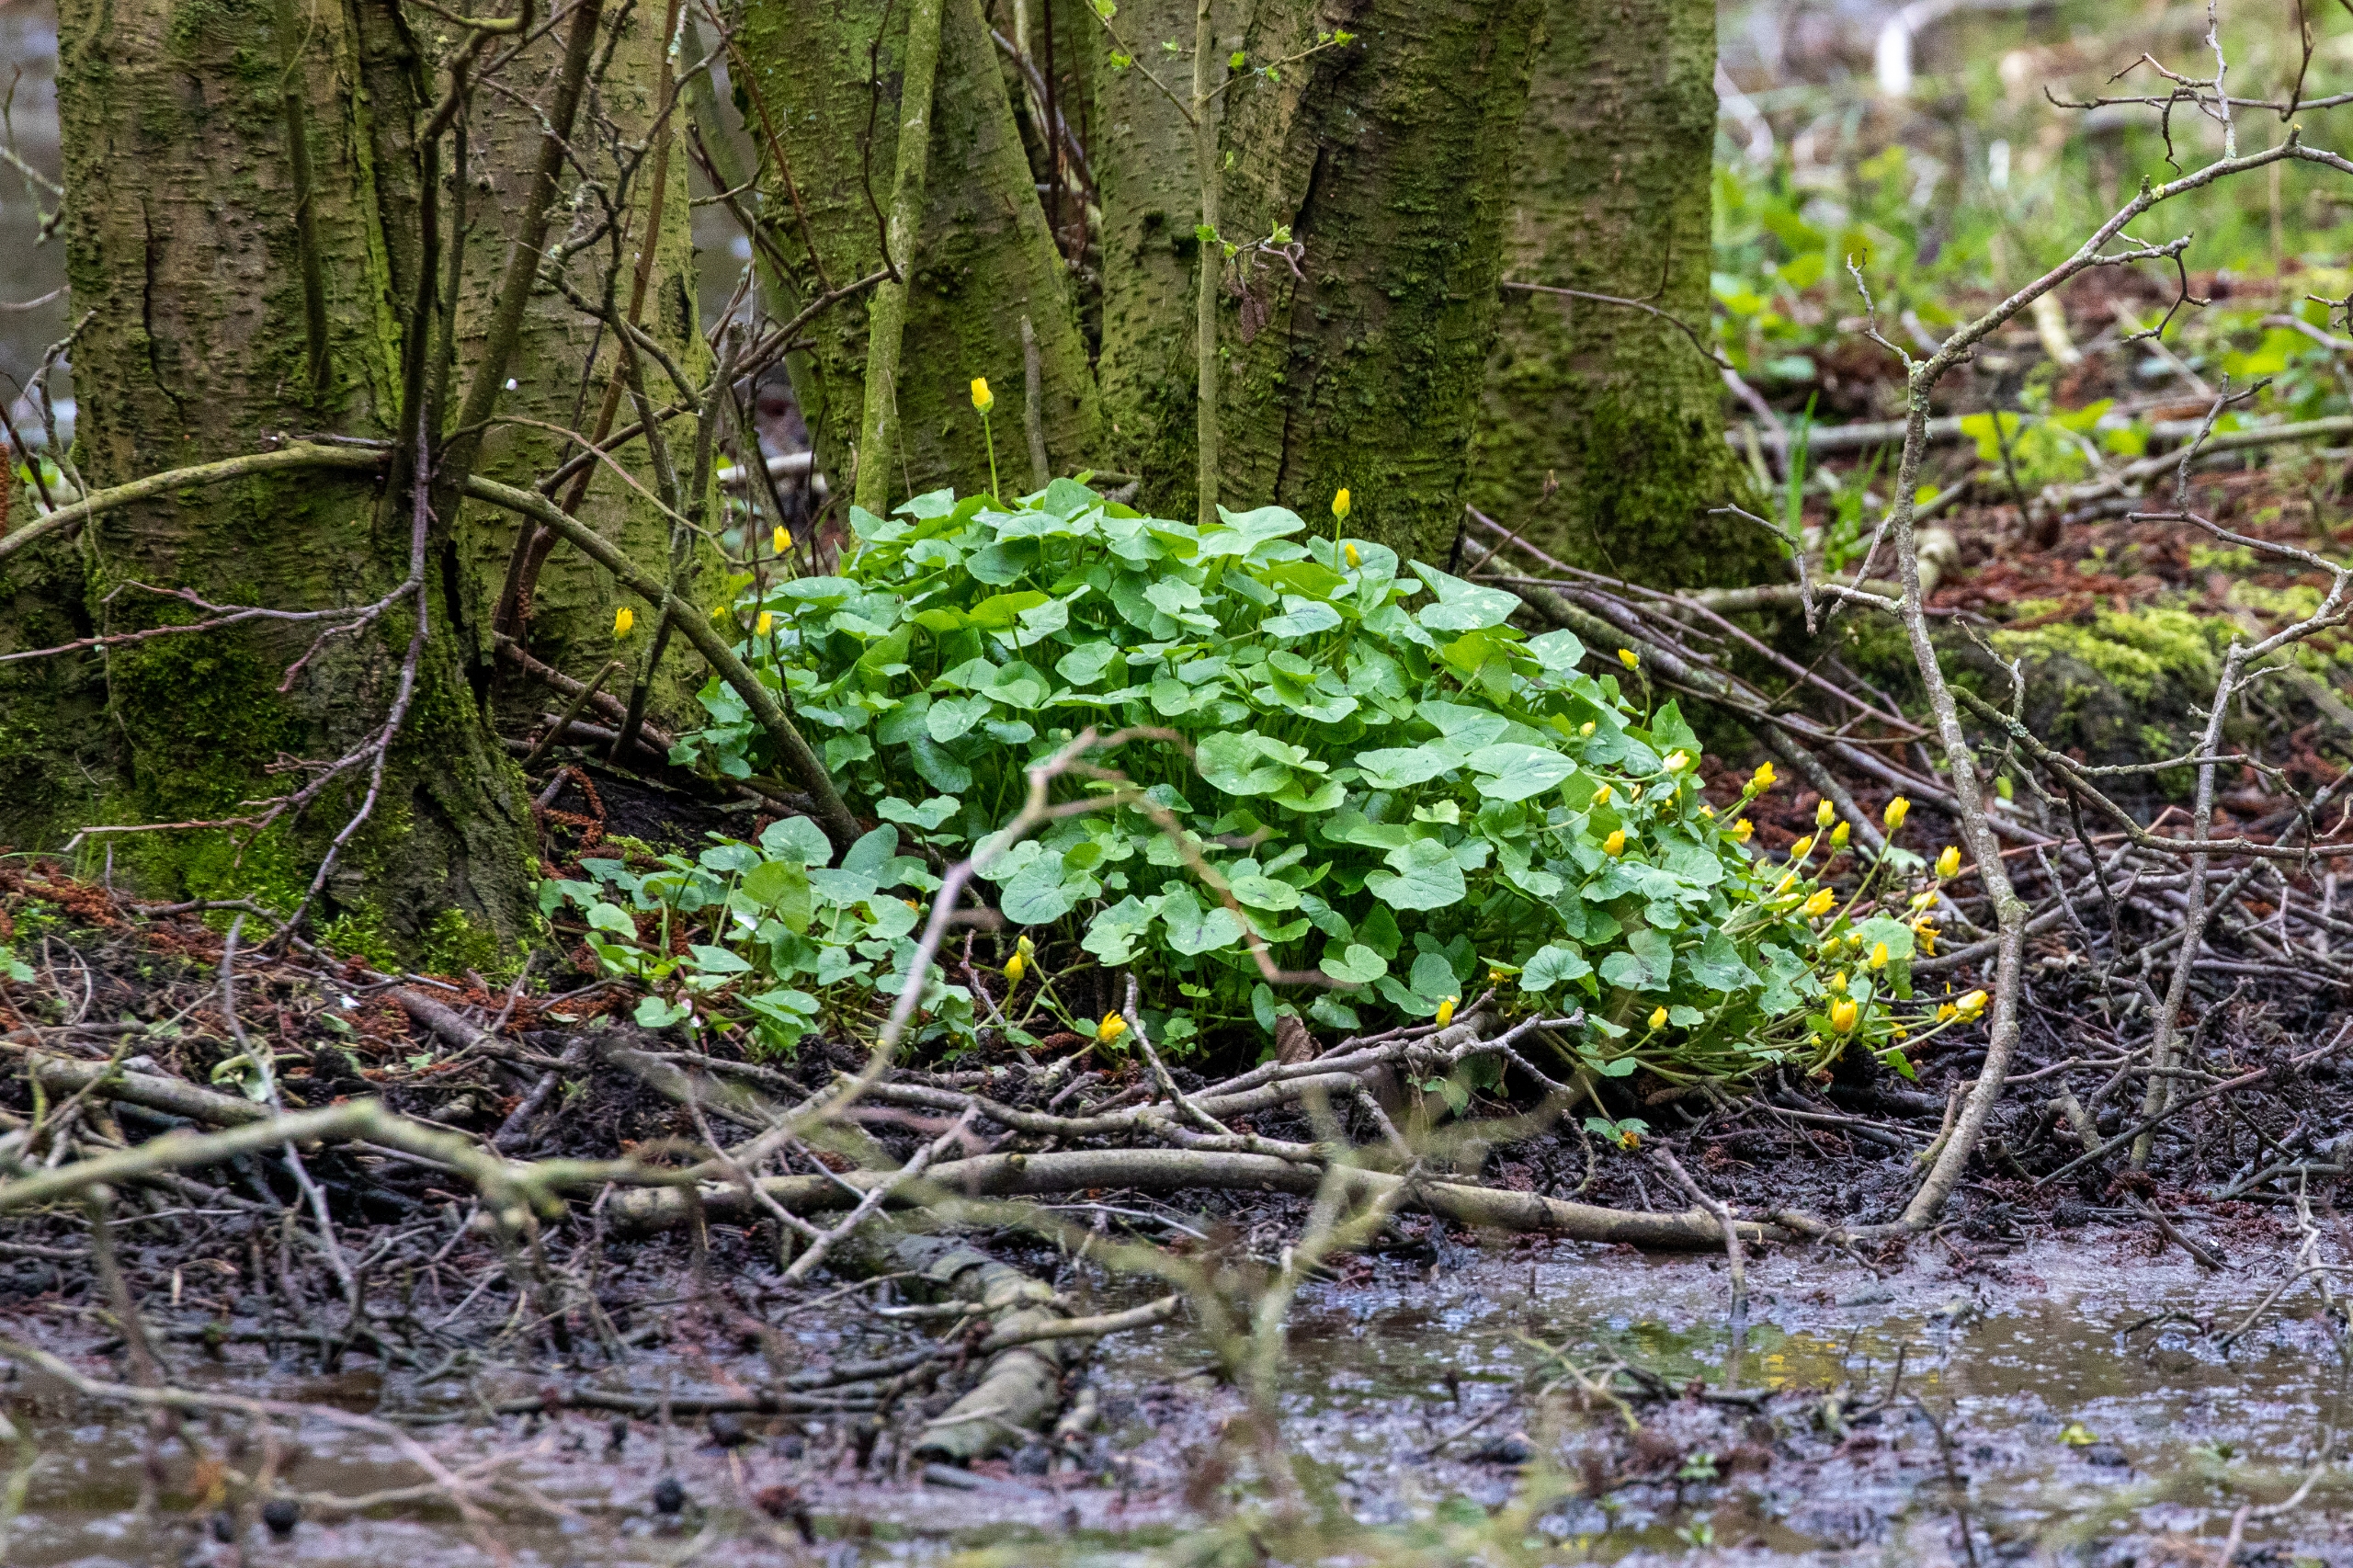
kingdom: Plantae
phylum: Tracheophyta
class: Magnoliopsida
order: Ranunculales
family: Ranunculaceae
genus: Ficaria
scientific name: Ficaria verna
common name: Vorterod
